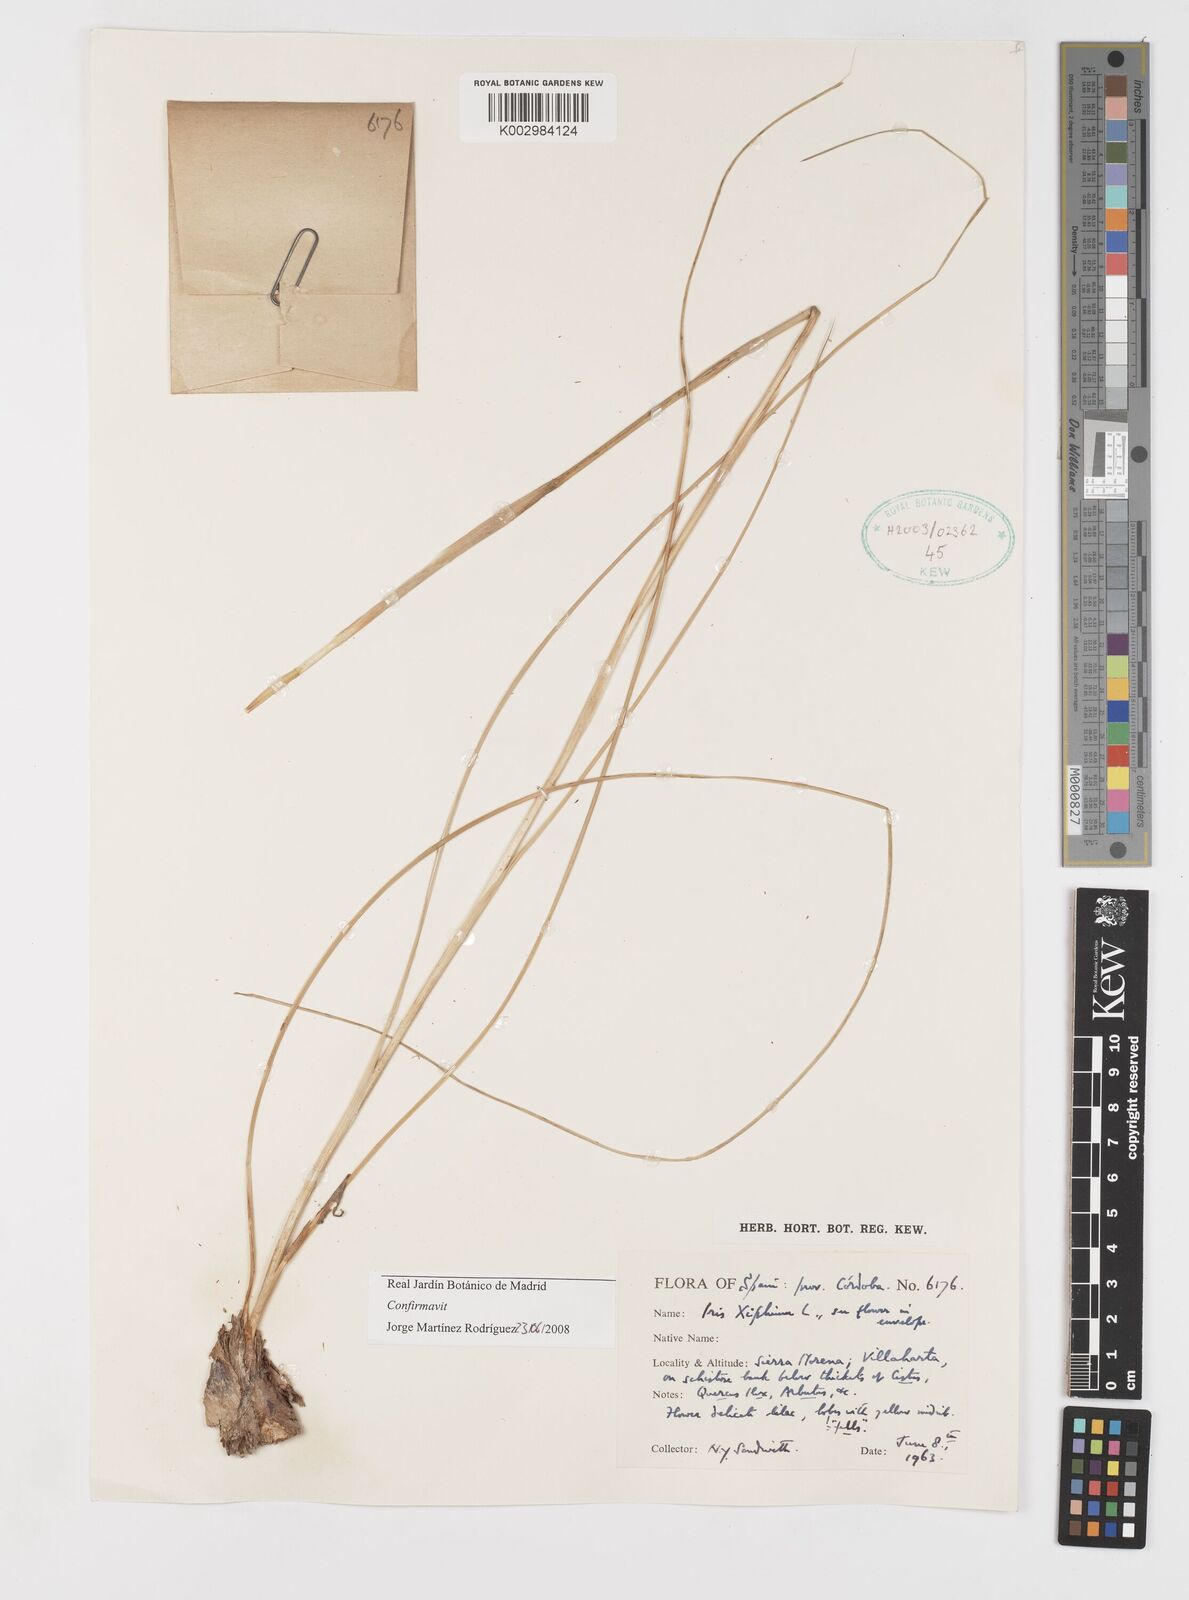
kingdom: Plantae
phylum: Tracheophyta
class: Liliopsida
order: Asparagales
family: Iridaceae
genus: Iris
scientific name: Iris xiphium
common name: Spanish iris
